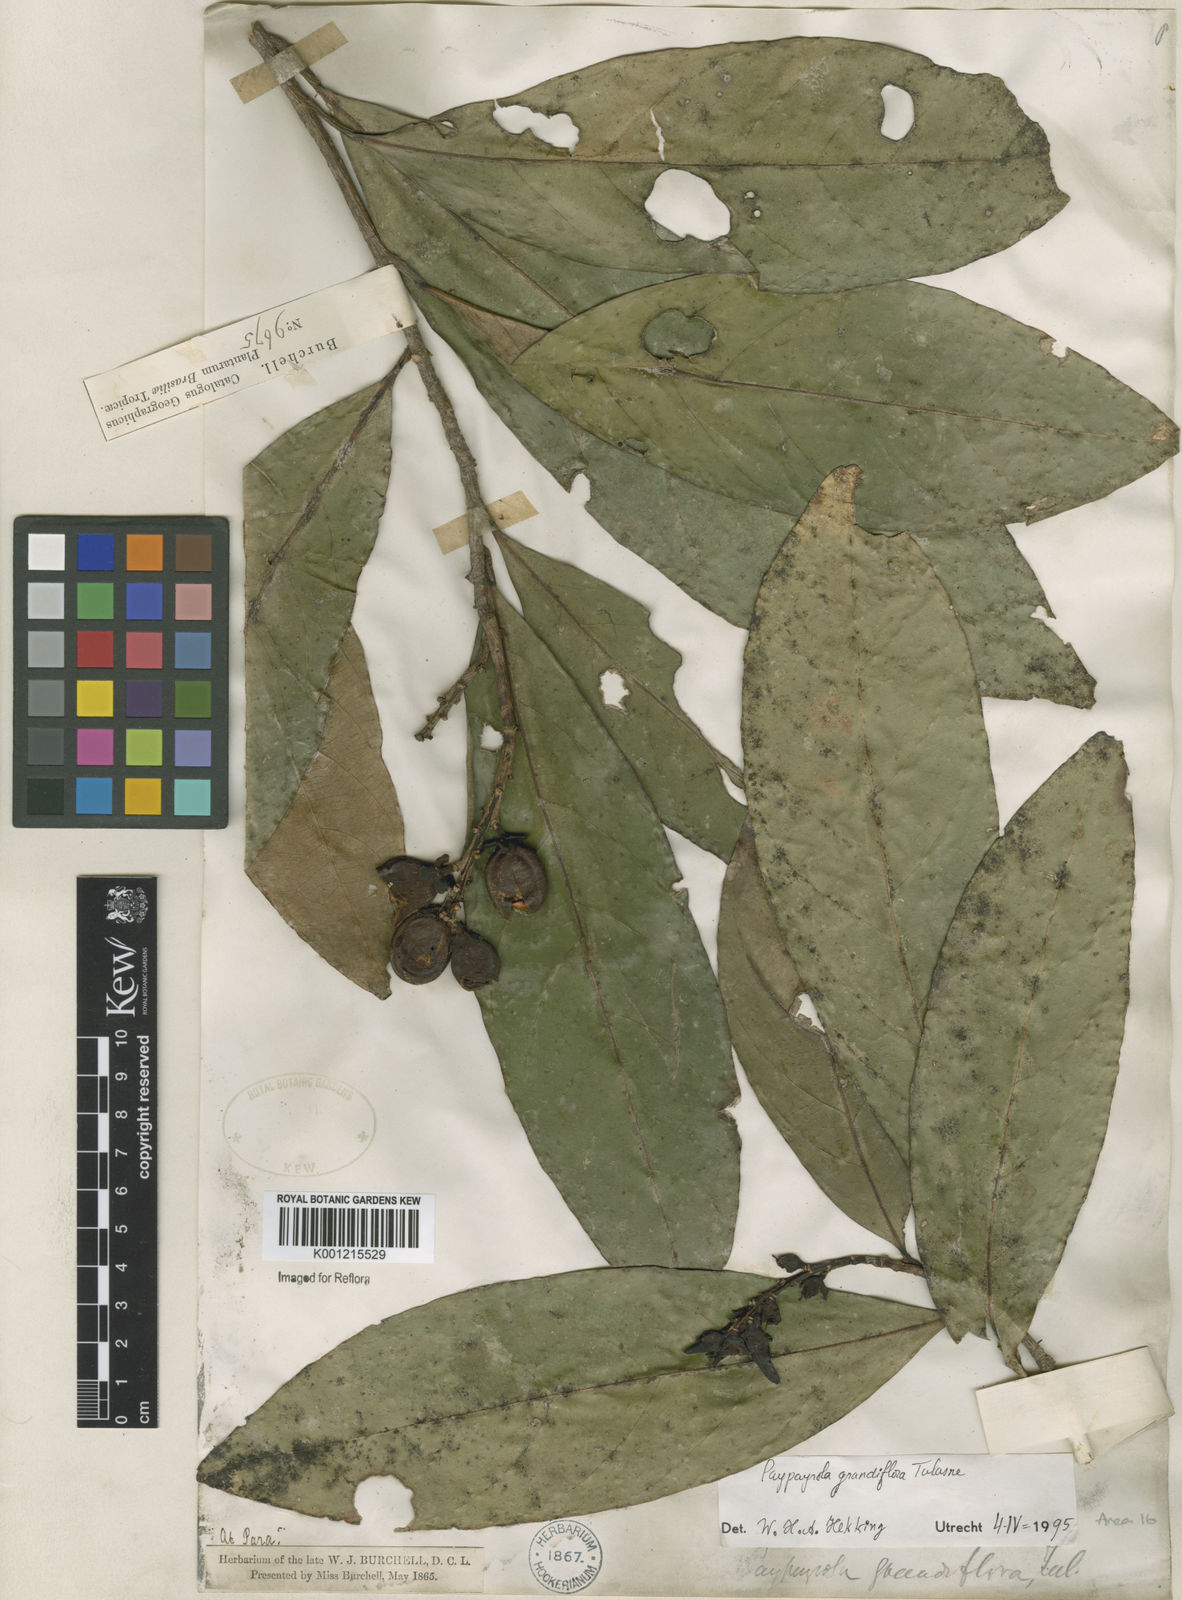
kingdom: Plantae
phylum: Tracheophyta
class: Magnoliopsida
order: Malpighiales
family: Violaceae
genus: Paypayrola
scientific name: Paypayrola grandiflora
